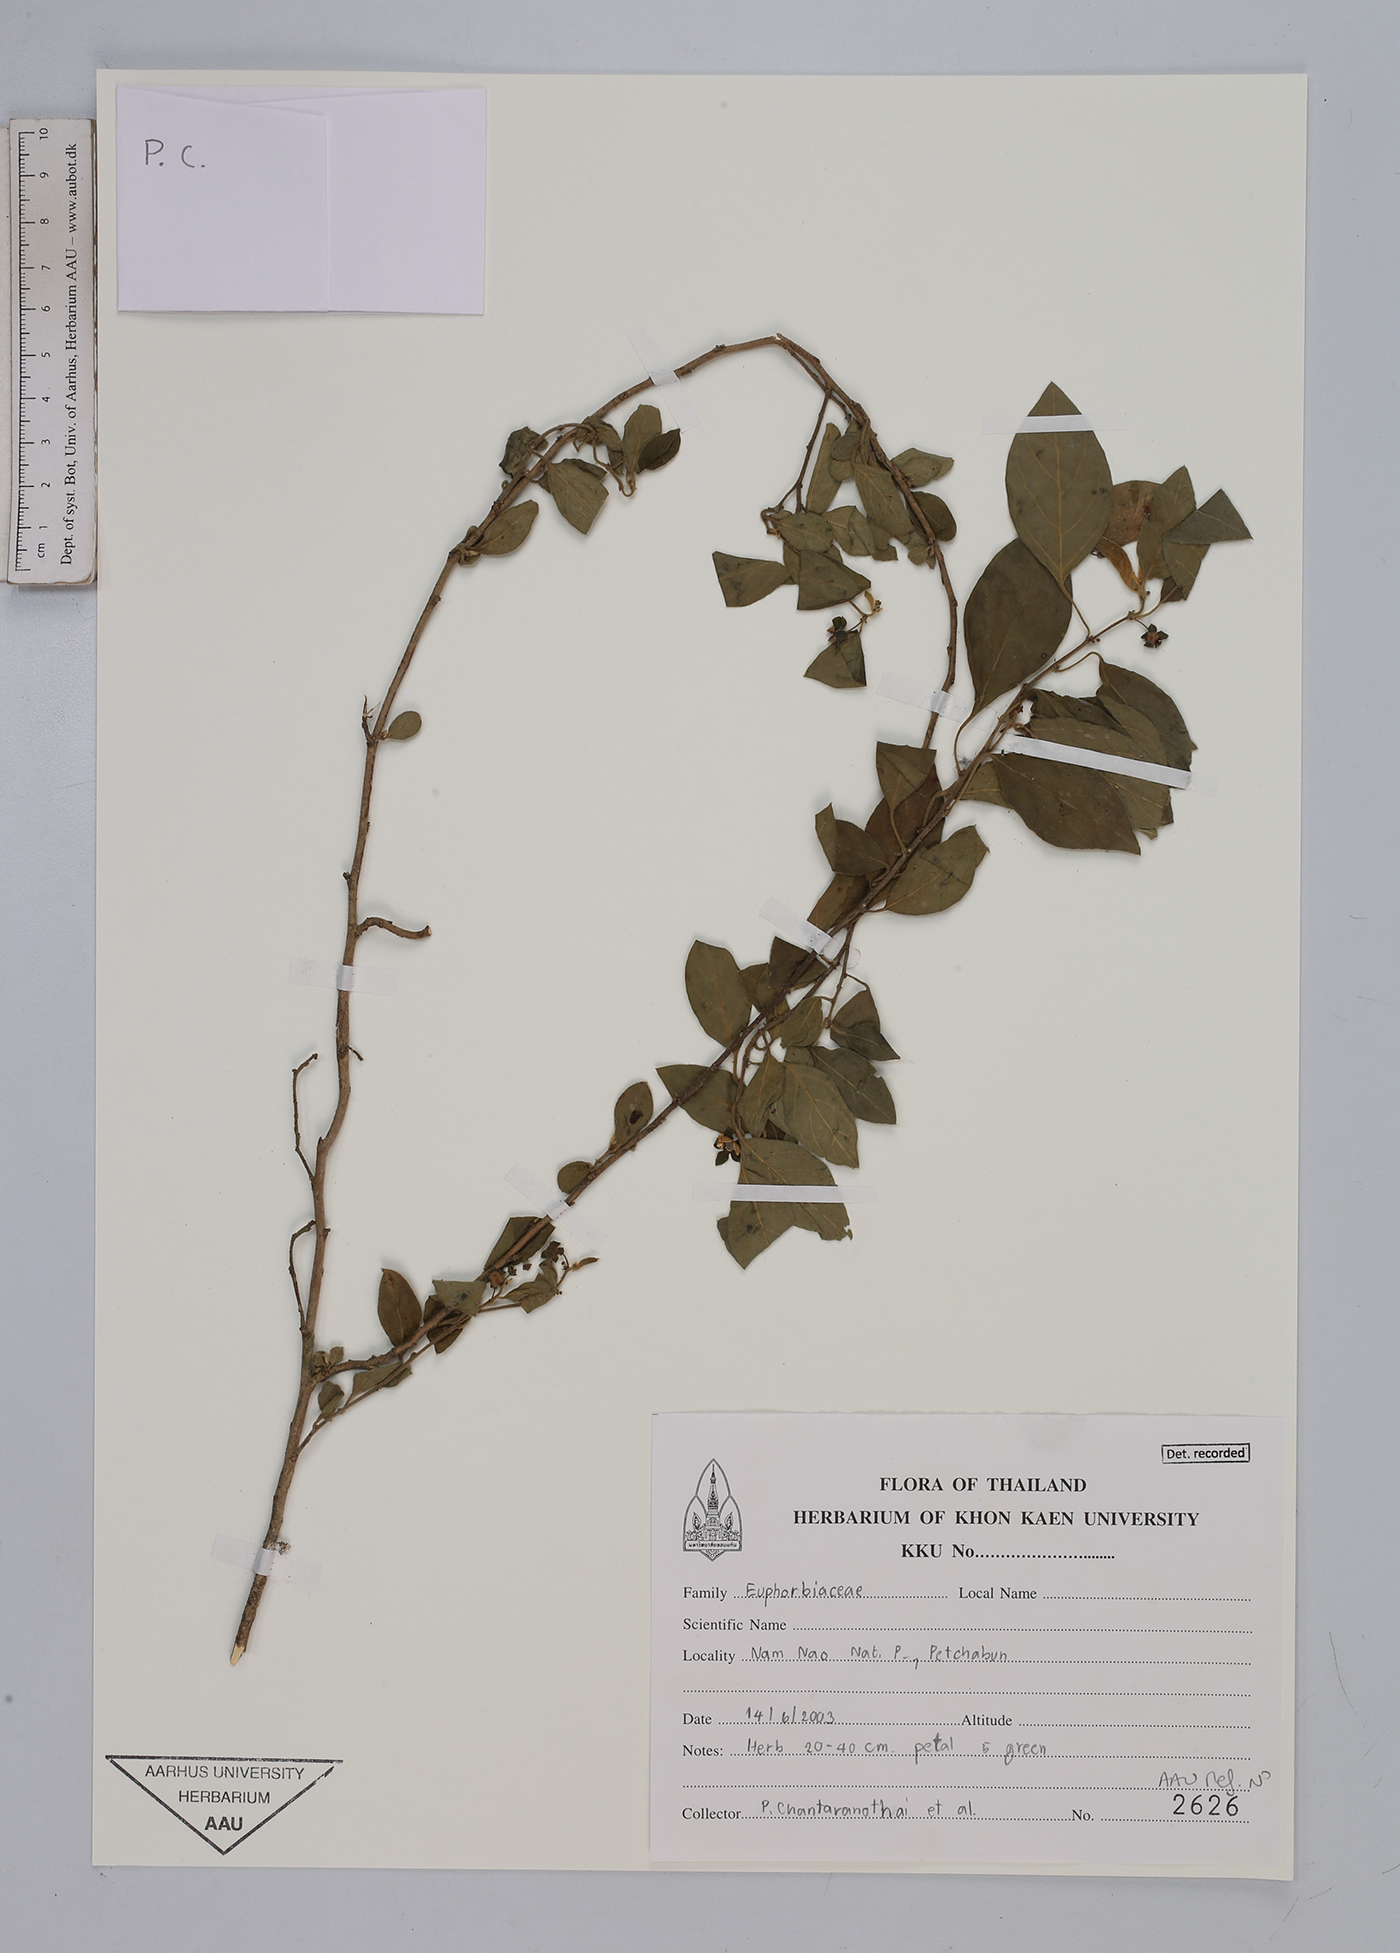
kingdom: Plantae
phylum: Tracheophyta
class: Magnoliopsida
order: Malpighiales
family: Euphorbiaceae
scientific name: Euphorbiaceae
